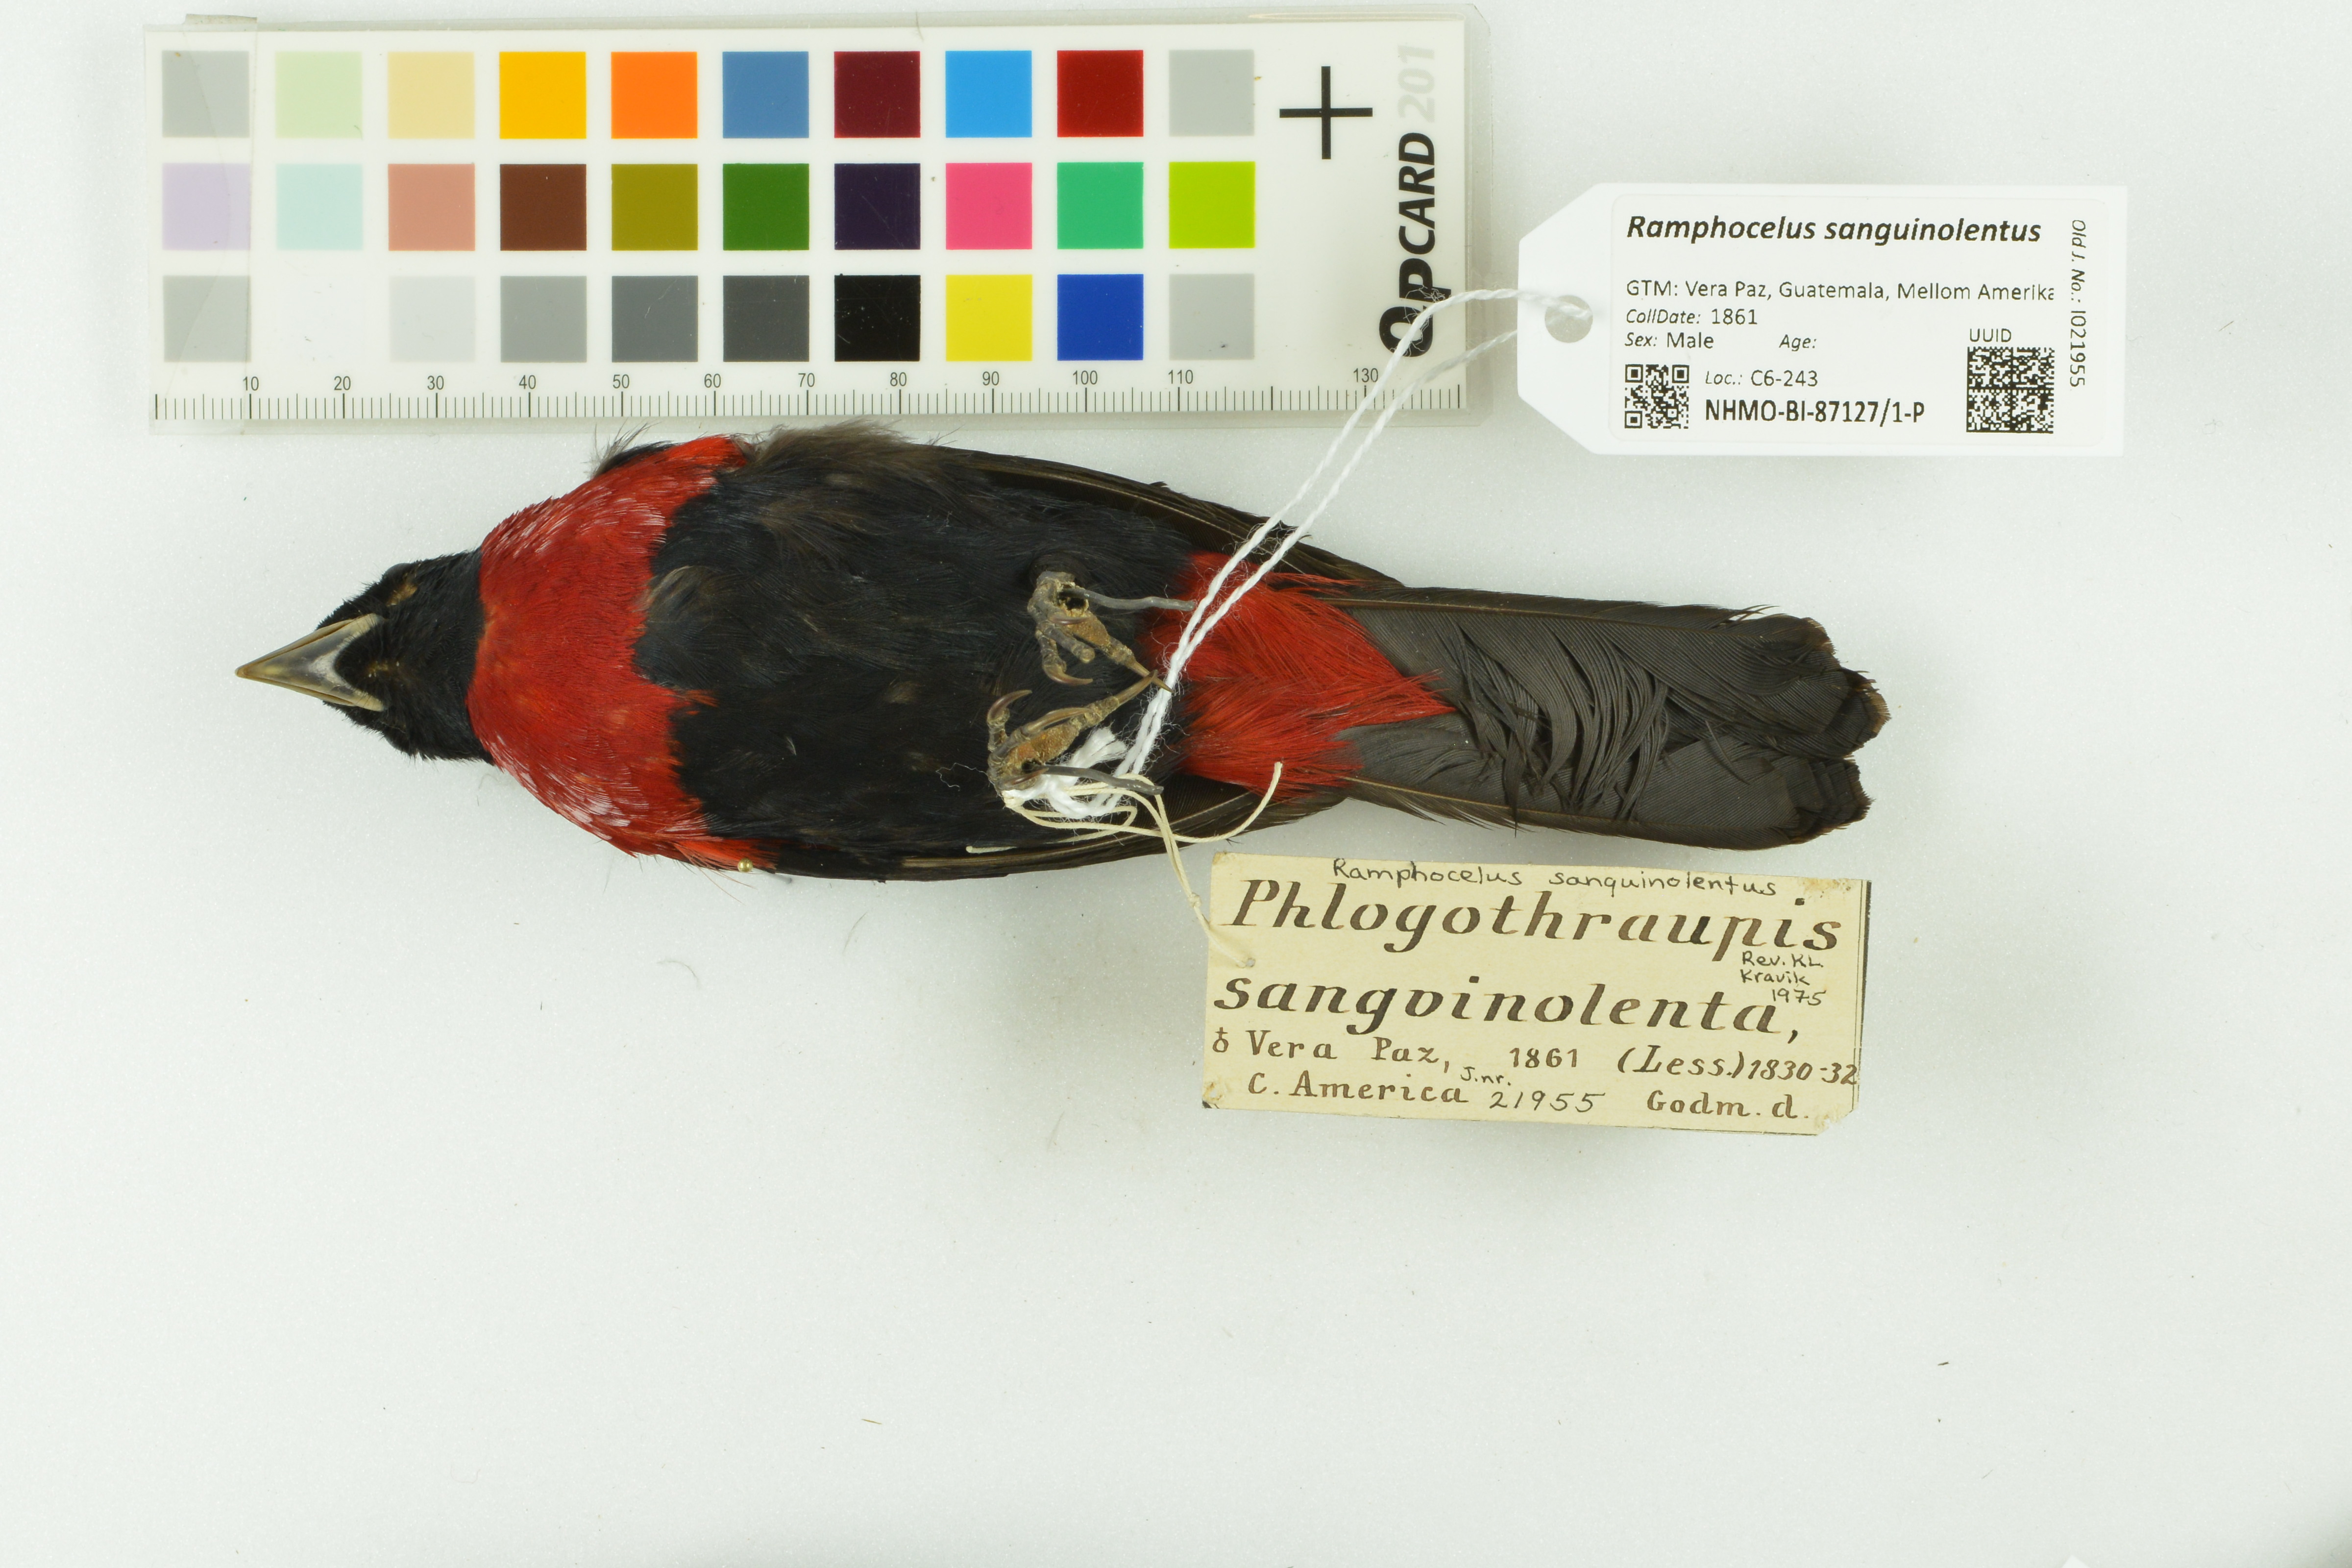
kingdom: Animalia
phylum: Chordata
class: Aves
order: Passeriformes
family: Thraupidae
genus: Ramphocelus
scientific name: Ramphocelus sanguinolentus
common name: Crimson-collared tanager
